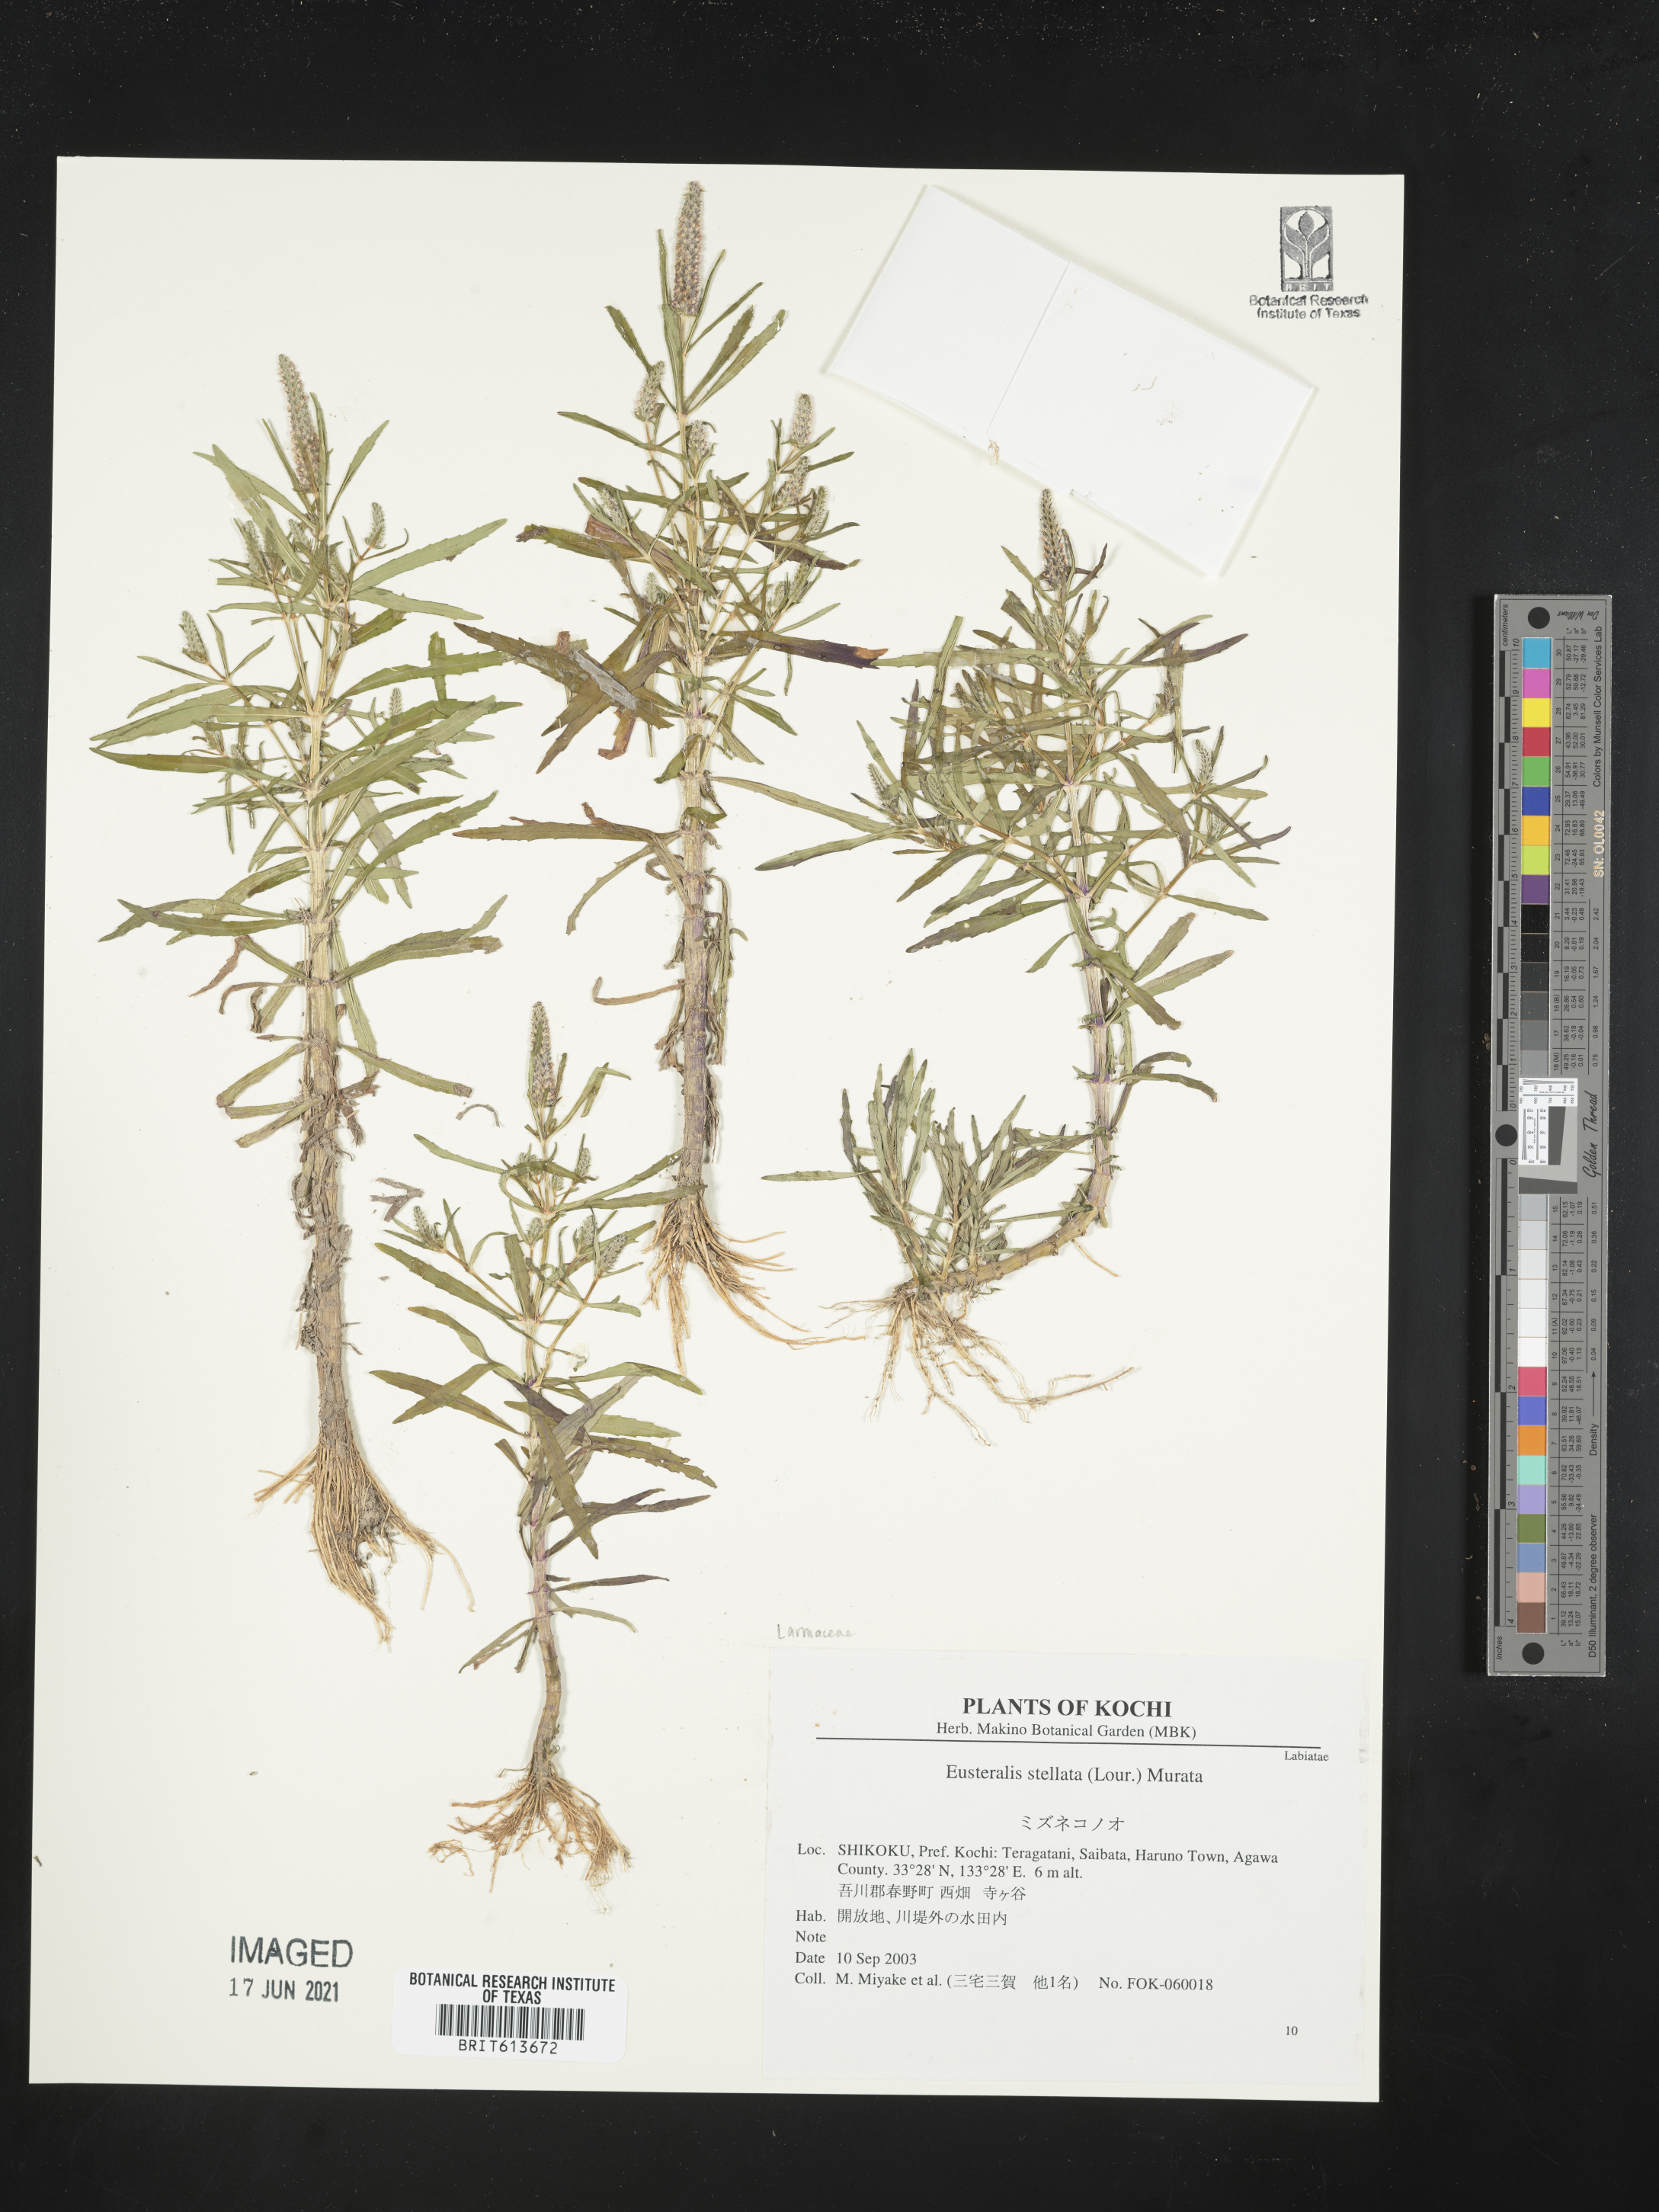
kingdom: Plantae
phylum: Tracheophyta
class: Magnoliopsida
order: Lamiales
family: Lamiaceae
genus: Pogostemon
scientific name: Pogostemon stellatus
